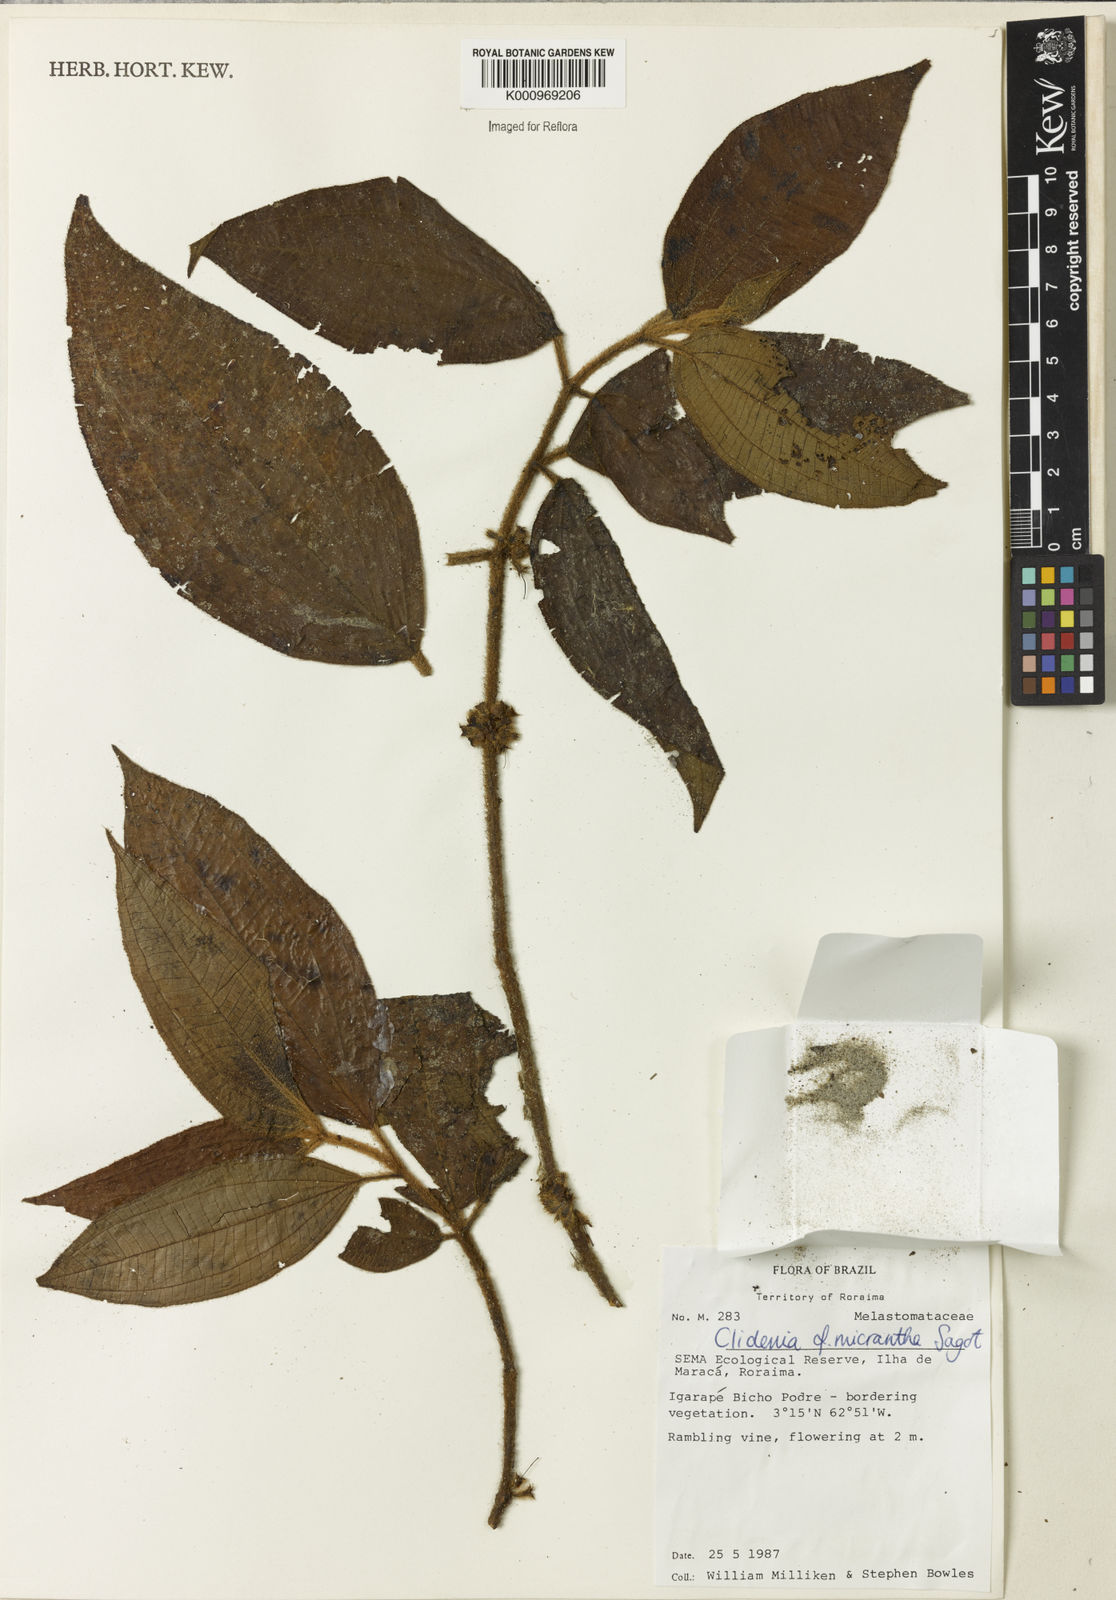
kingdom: Plantae
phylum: Tracheophyta
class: Magnoliopsida
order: Myrtales
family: Melastomataceae
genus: Miconia
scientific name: Miconia drosera
